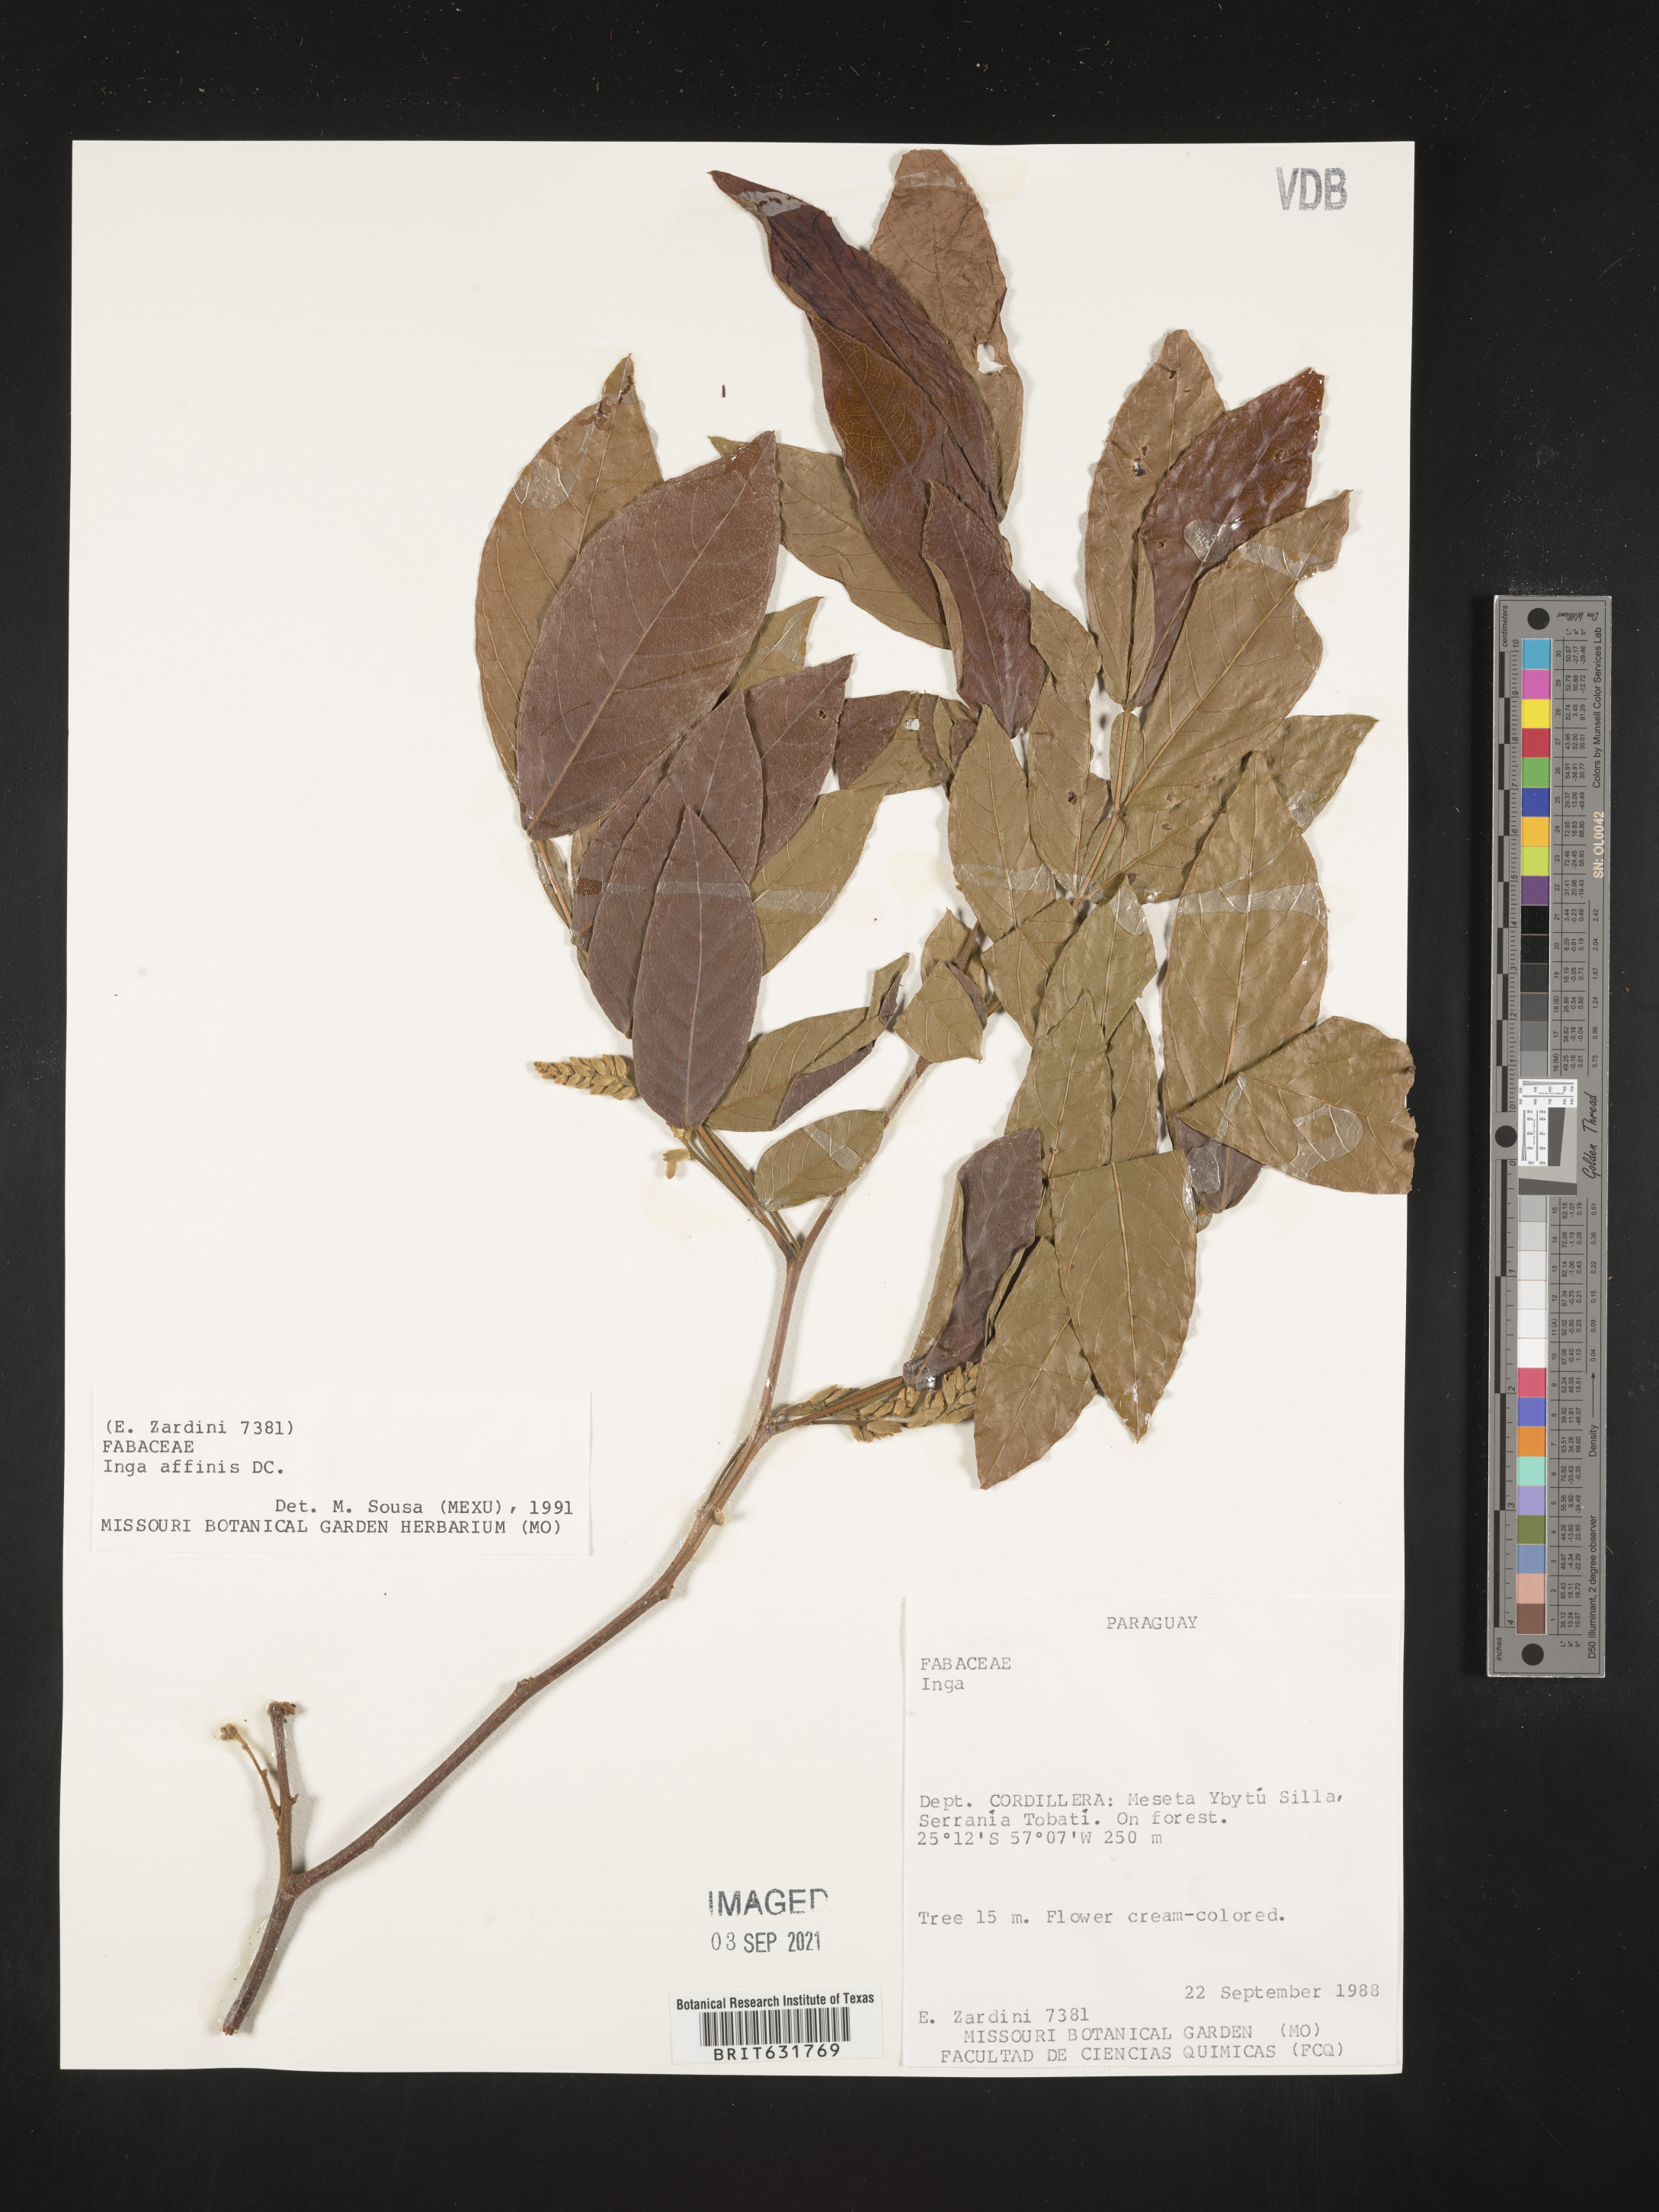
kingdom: Plantae
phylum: Tracheophyta
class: Magnoliopsida
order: Fabales
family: Fabaceae
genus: Inga
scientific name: Inga
